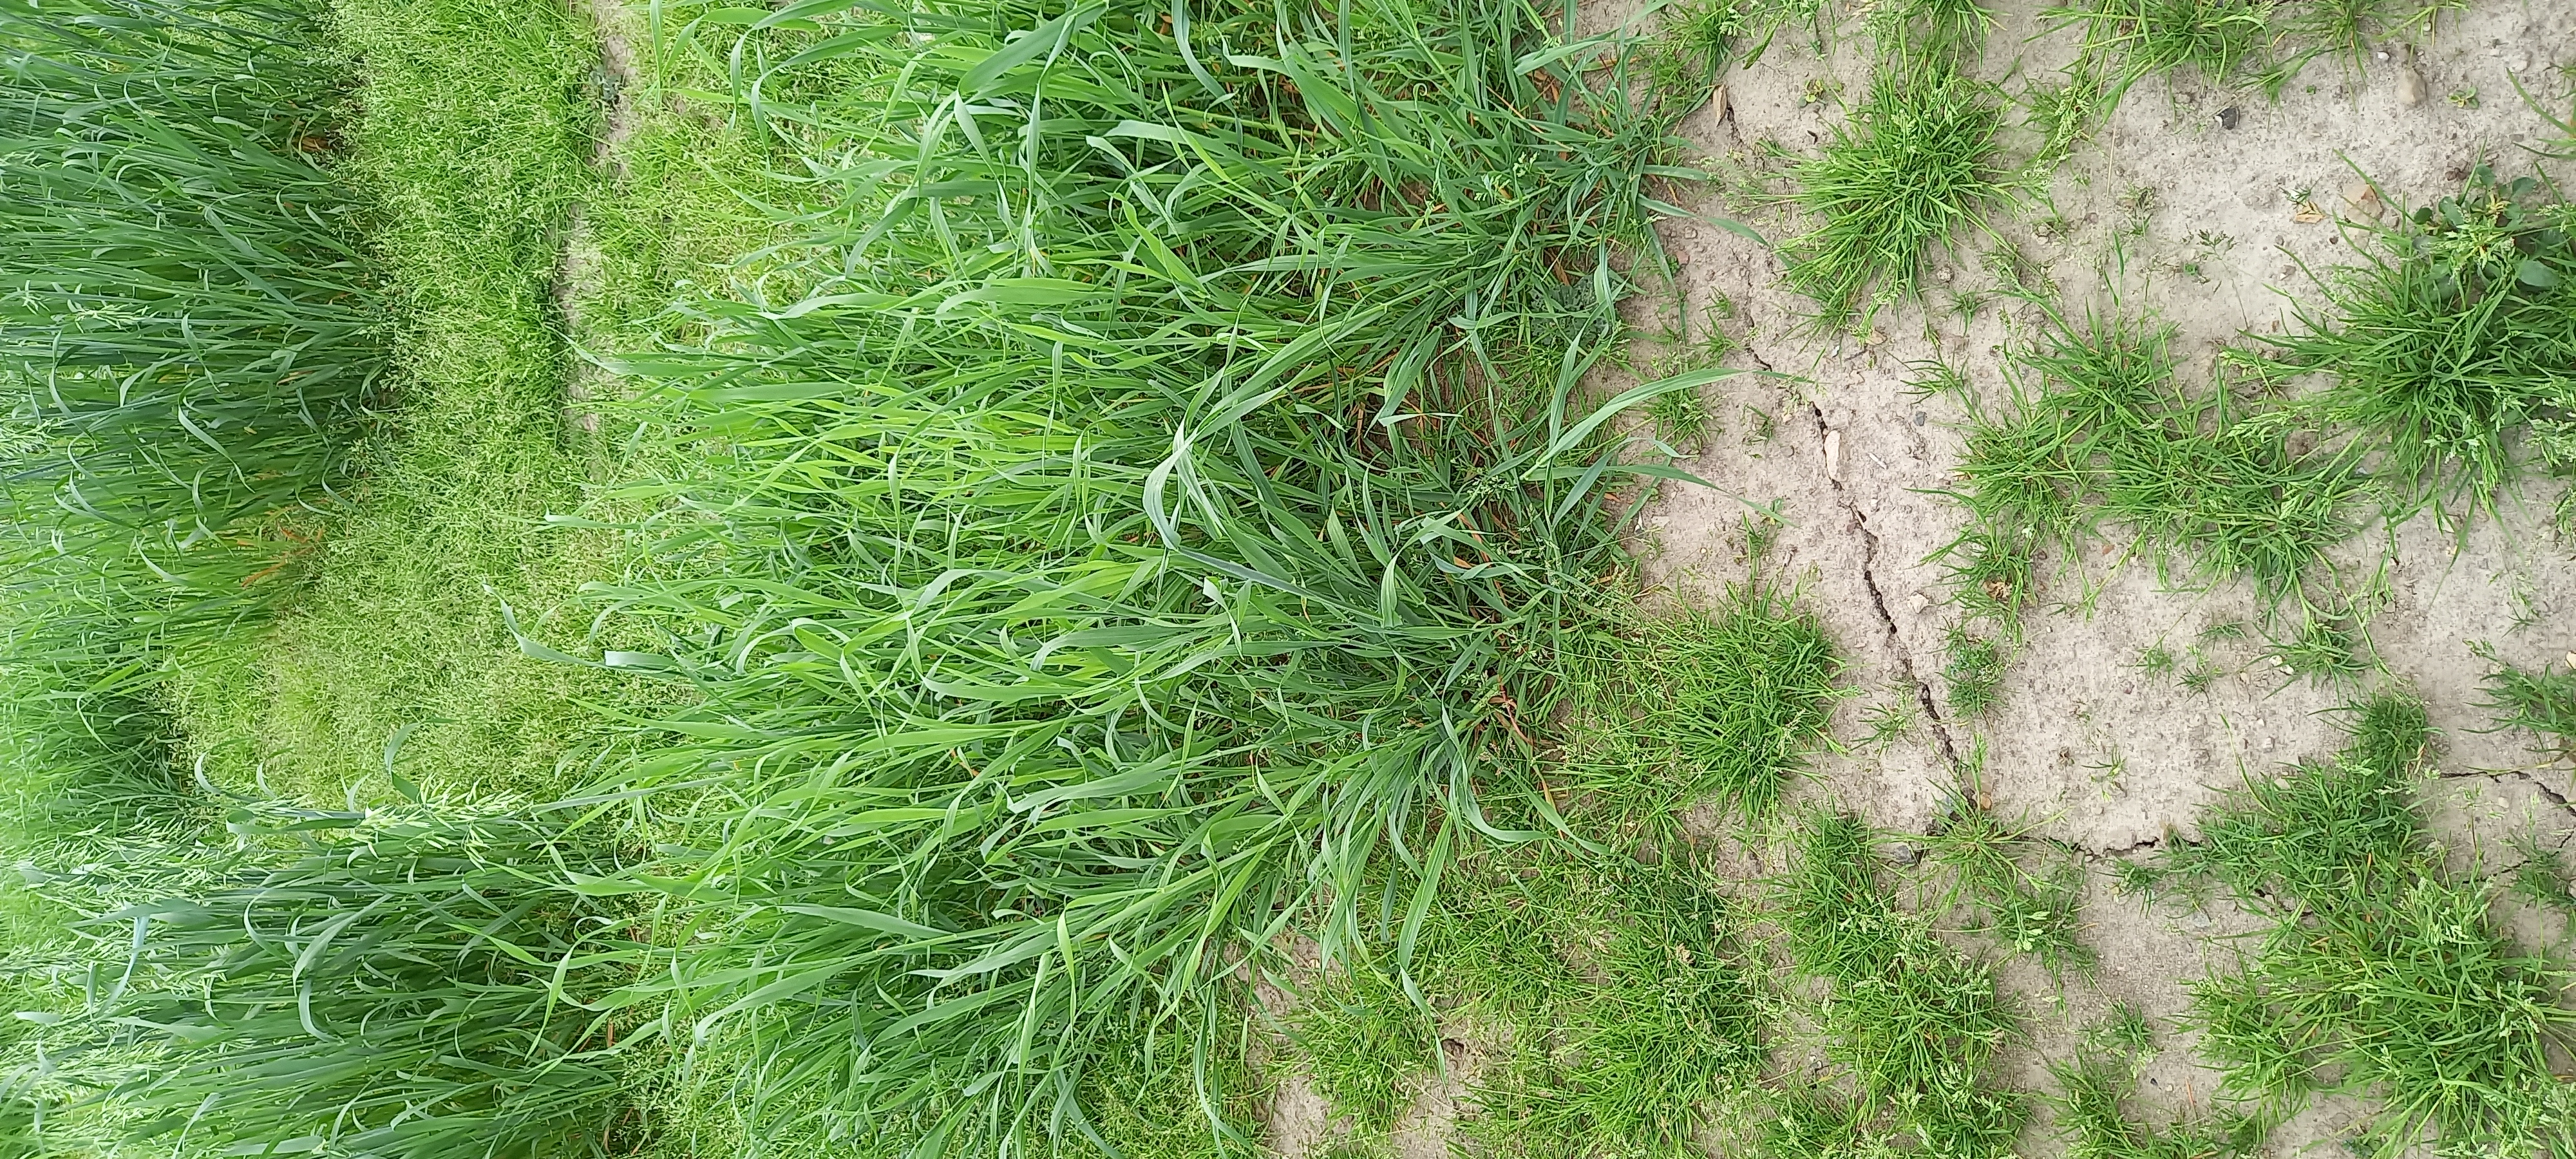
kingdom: Plantae
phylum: Tracheophyta
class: Liliopsida
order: Poales
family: Poaceae
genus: Avena
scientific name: Avena sativa
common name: Oat
